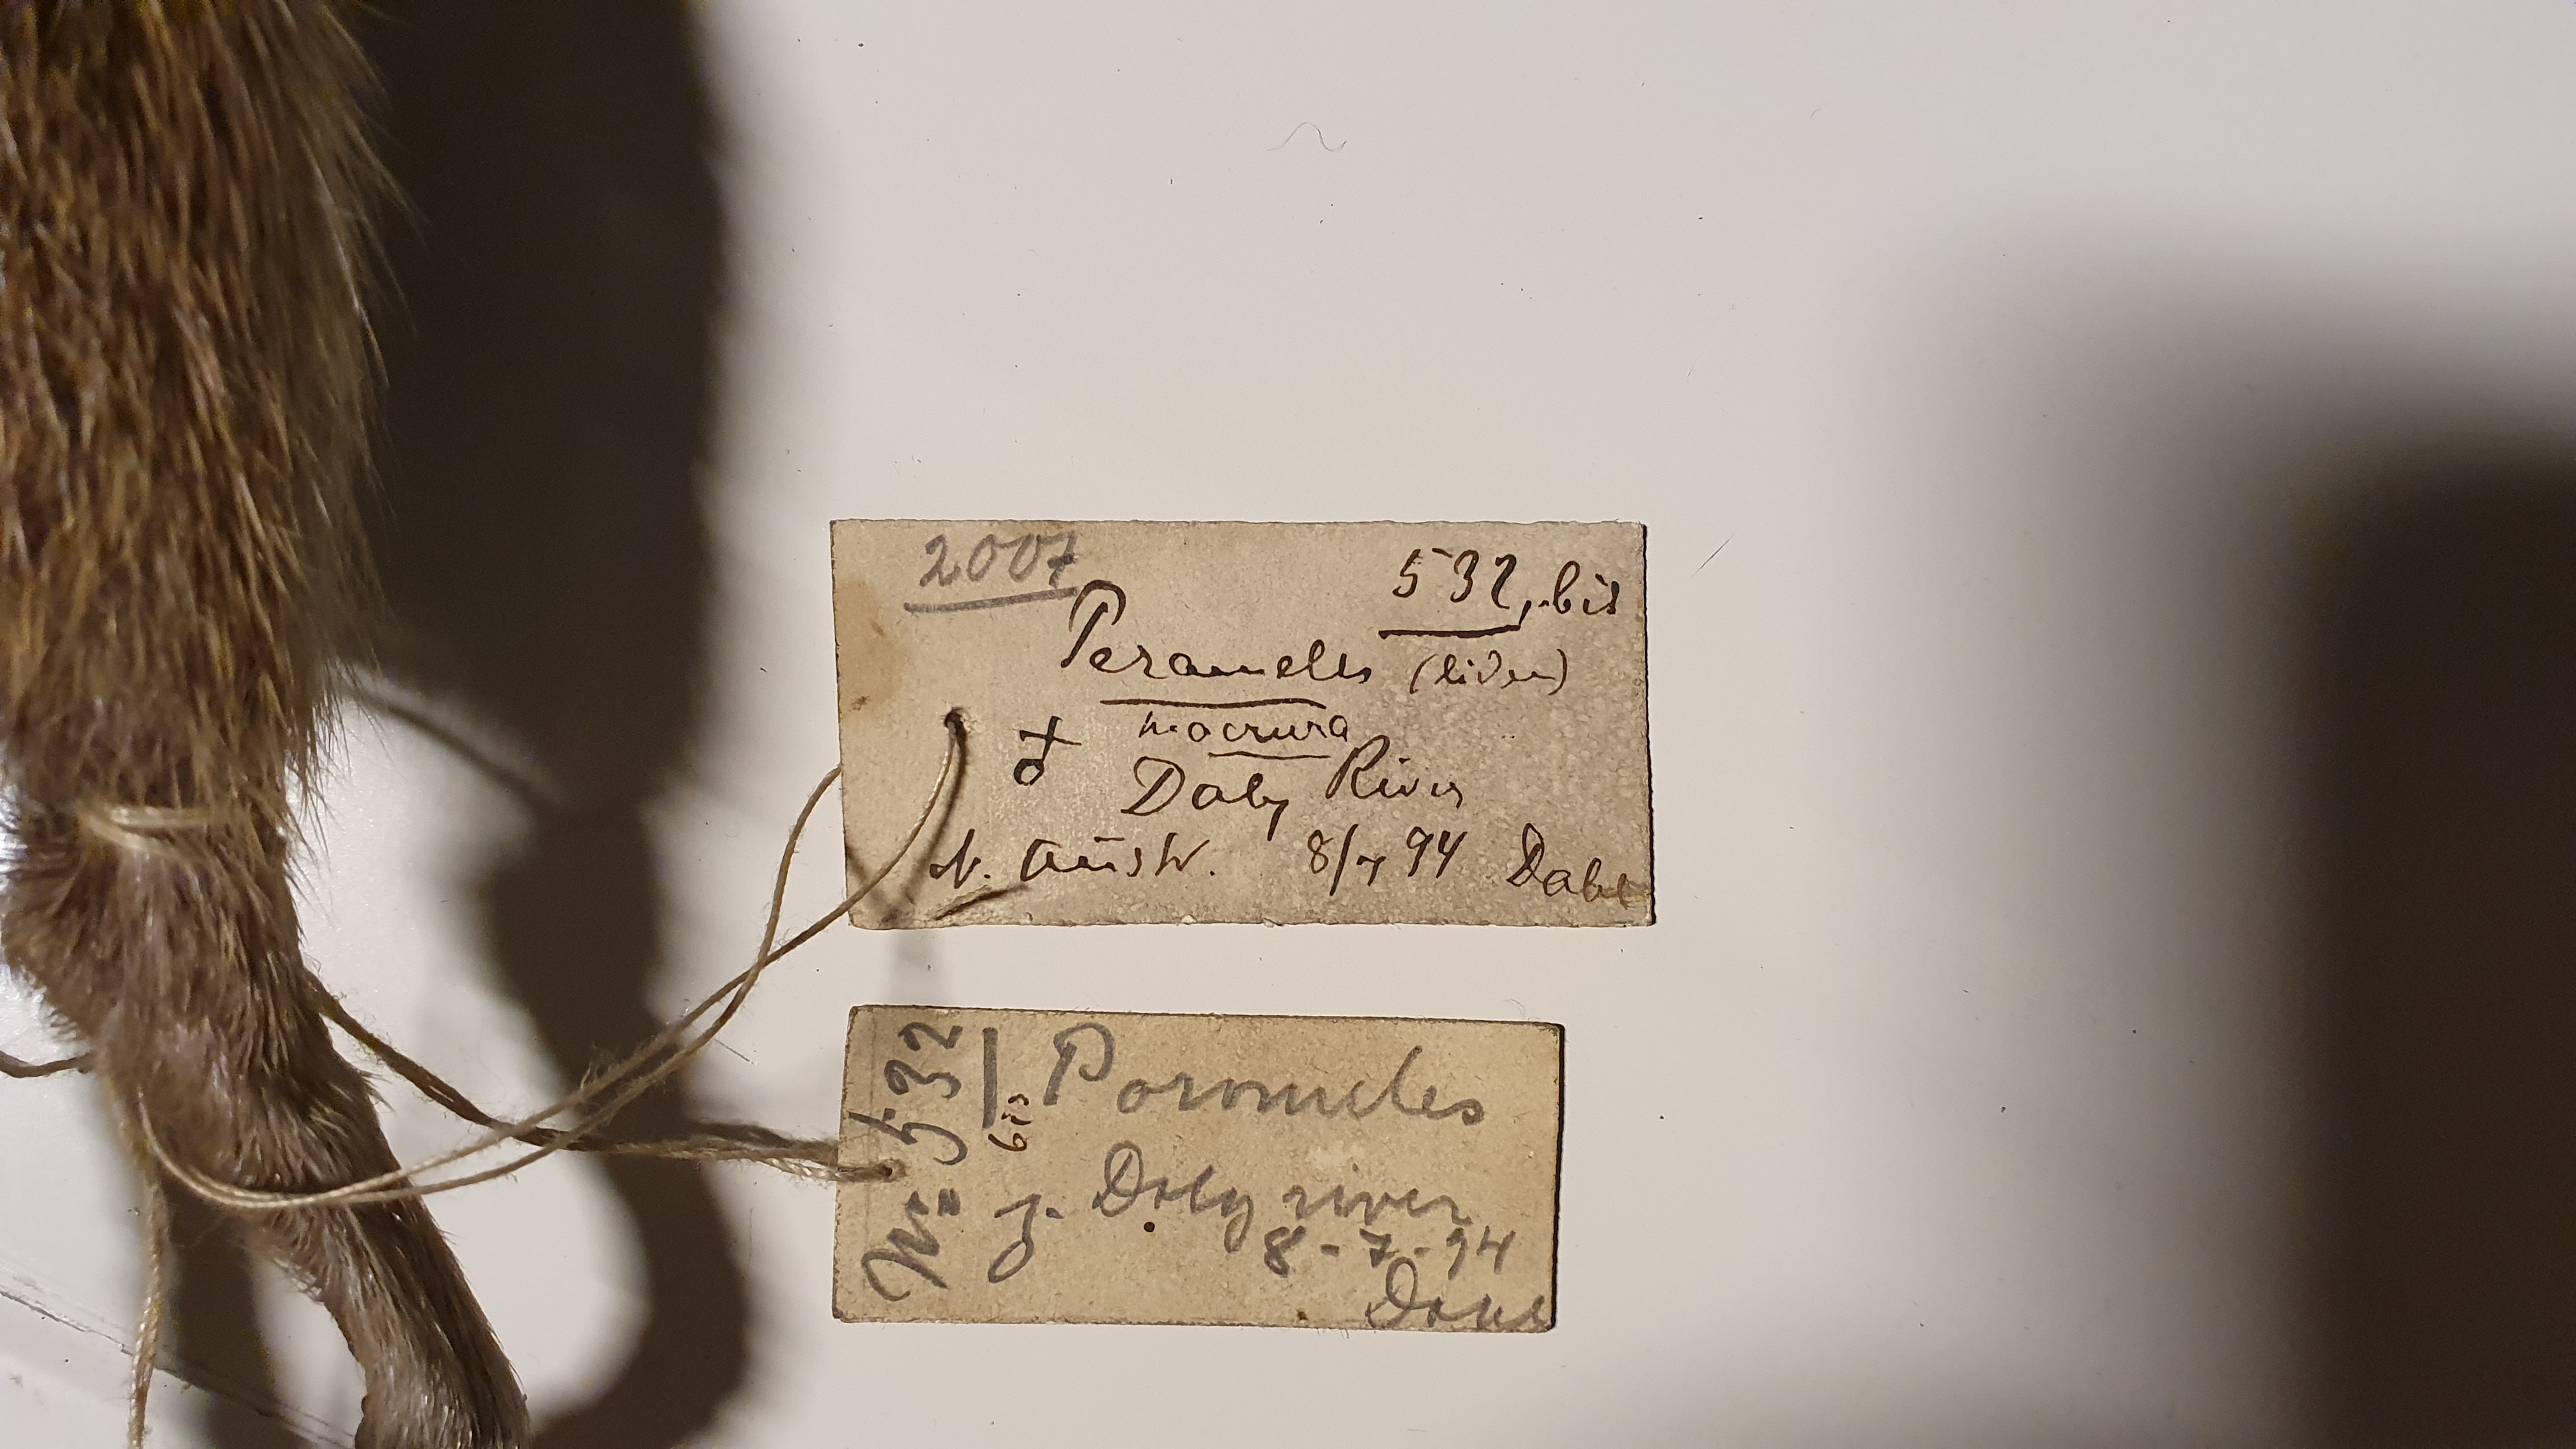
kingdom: Animalia
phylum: Chordata
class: Mammalia
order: Peramelemorphia
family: Peramelidae
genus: Isoodon
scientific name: Isoodon
